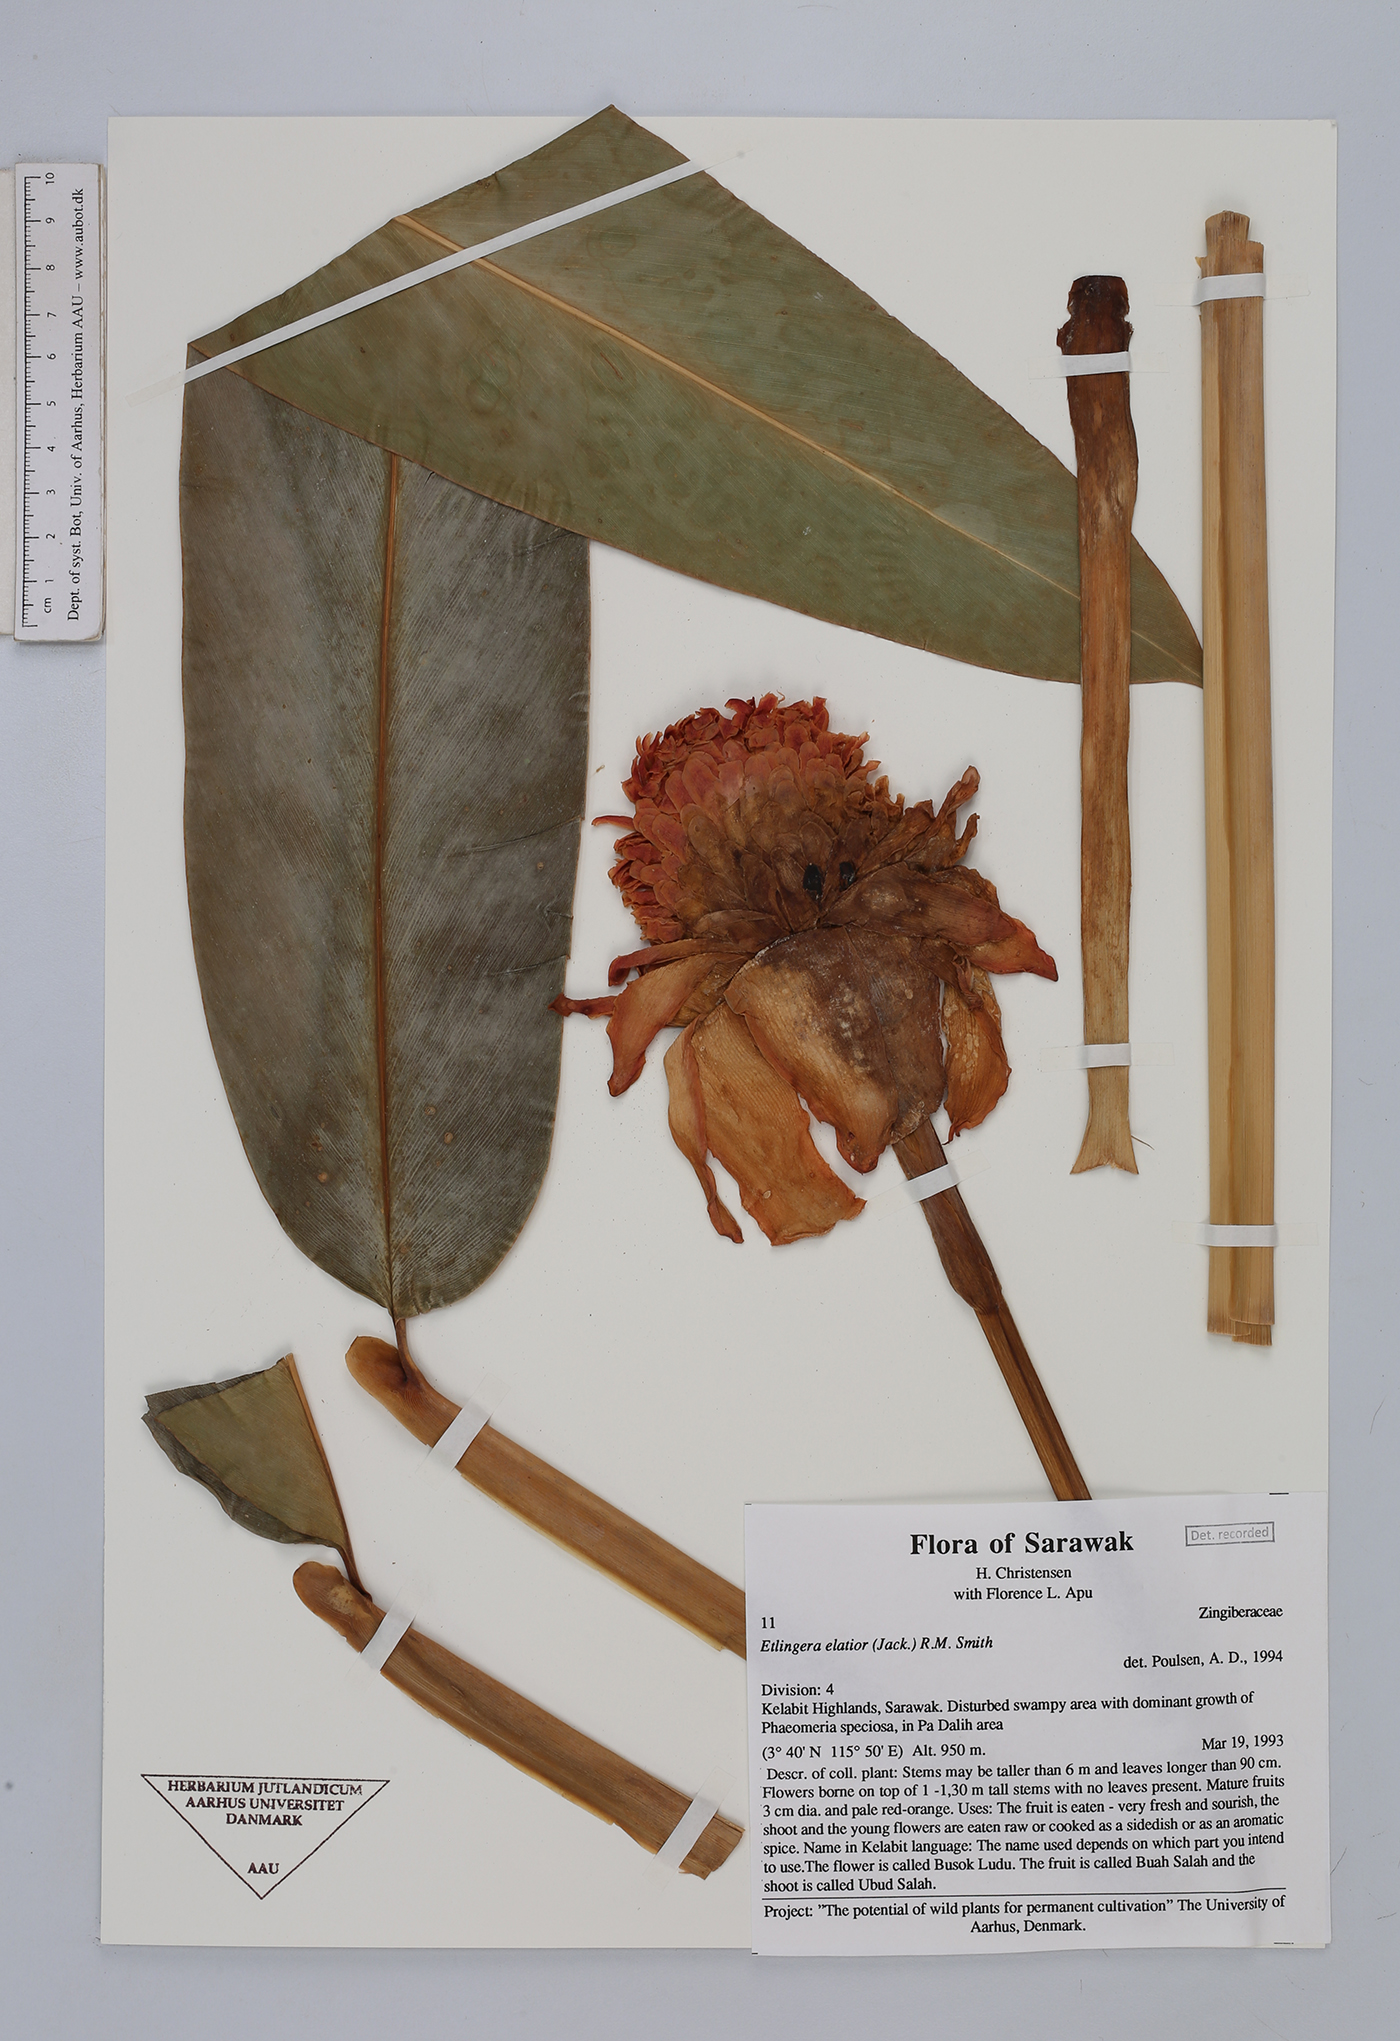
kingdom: Plantae
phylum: Tracheophyta
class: Liliopsida
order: Zingiberales
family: Zingiberaceae
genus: Etlingera
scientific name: Etlingera elatior
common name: Philippine waxflower
